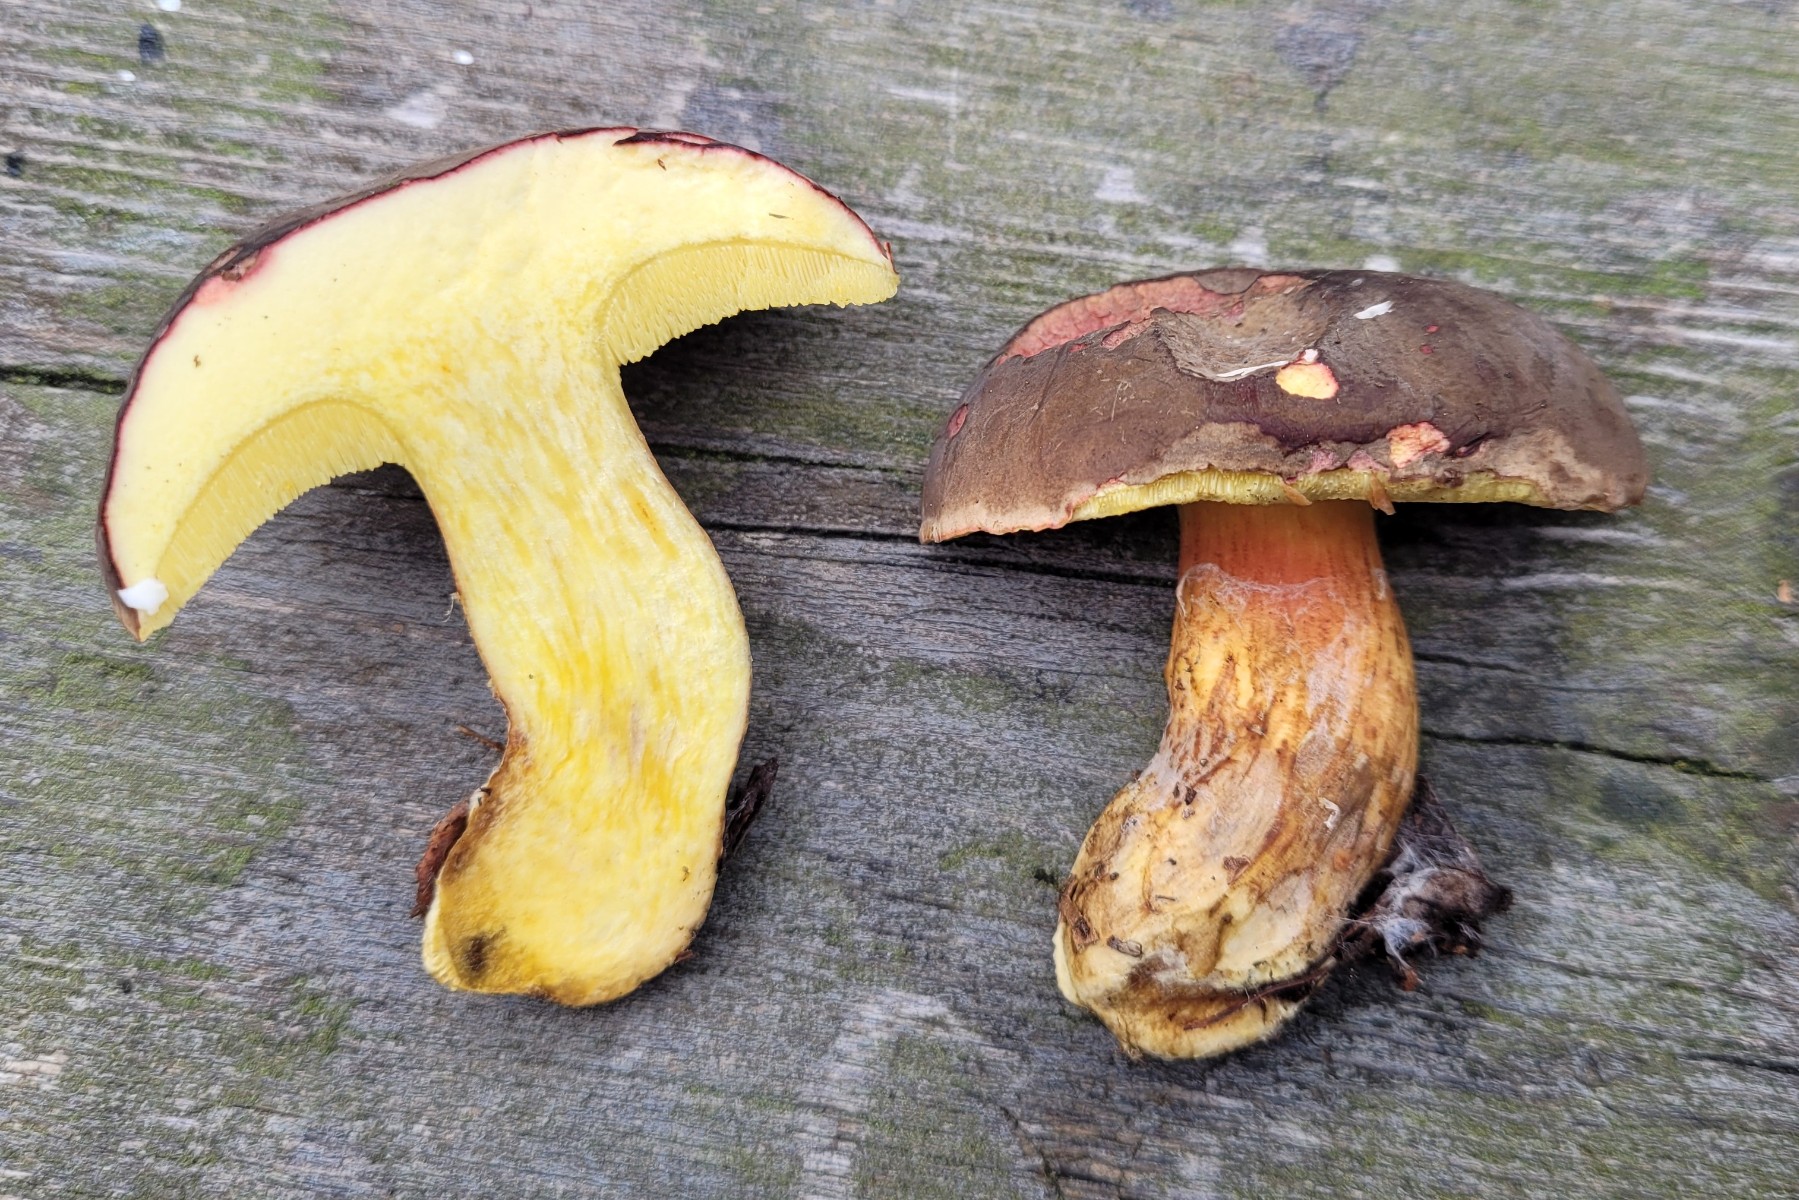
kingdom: Fungi
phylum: Basidiomycota
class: Agaricomycetes
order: Boletales
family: Boletaceae
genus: Xerocomellus
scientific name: Xerocomellus pruinatus
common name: dugget rørhat
